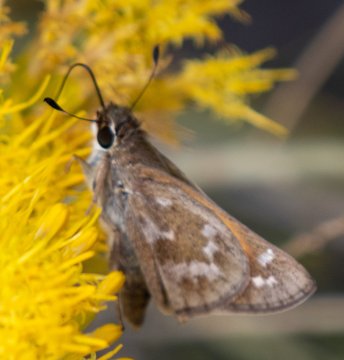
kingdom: Animalia
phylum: Arthropoda
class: Insecta
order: Lepidoptera
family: Hesperiidae
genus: Atalopedes
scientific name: Atalopedes campestris
